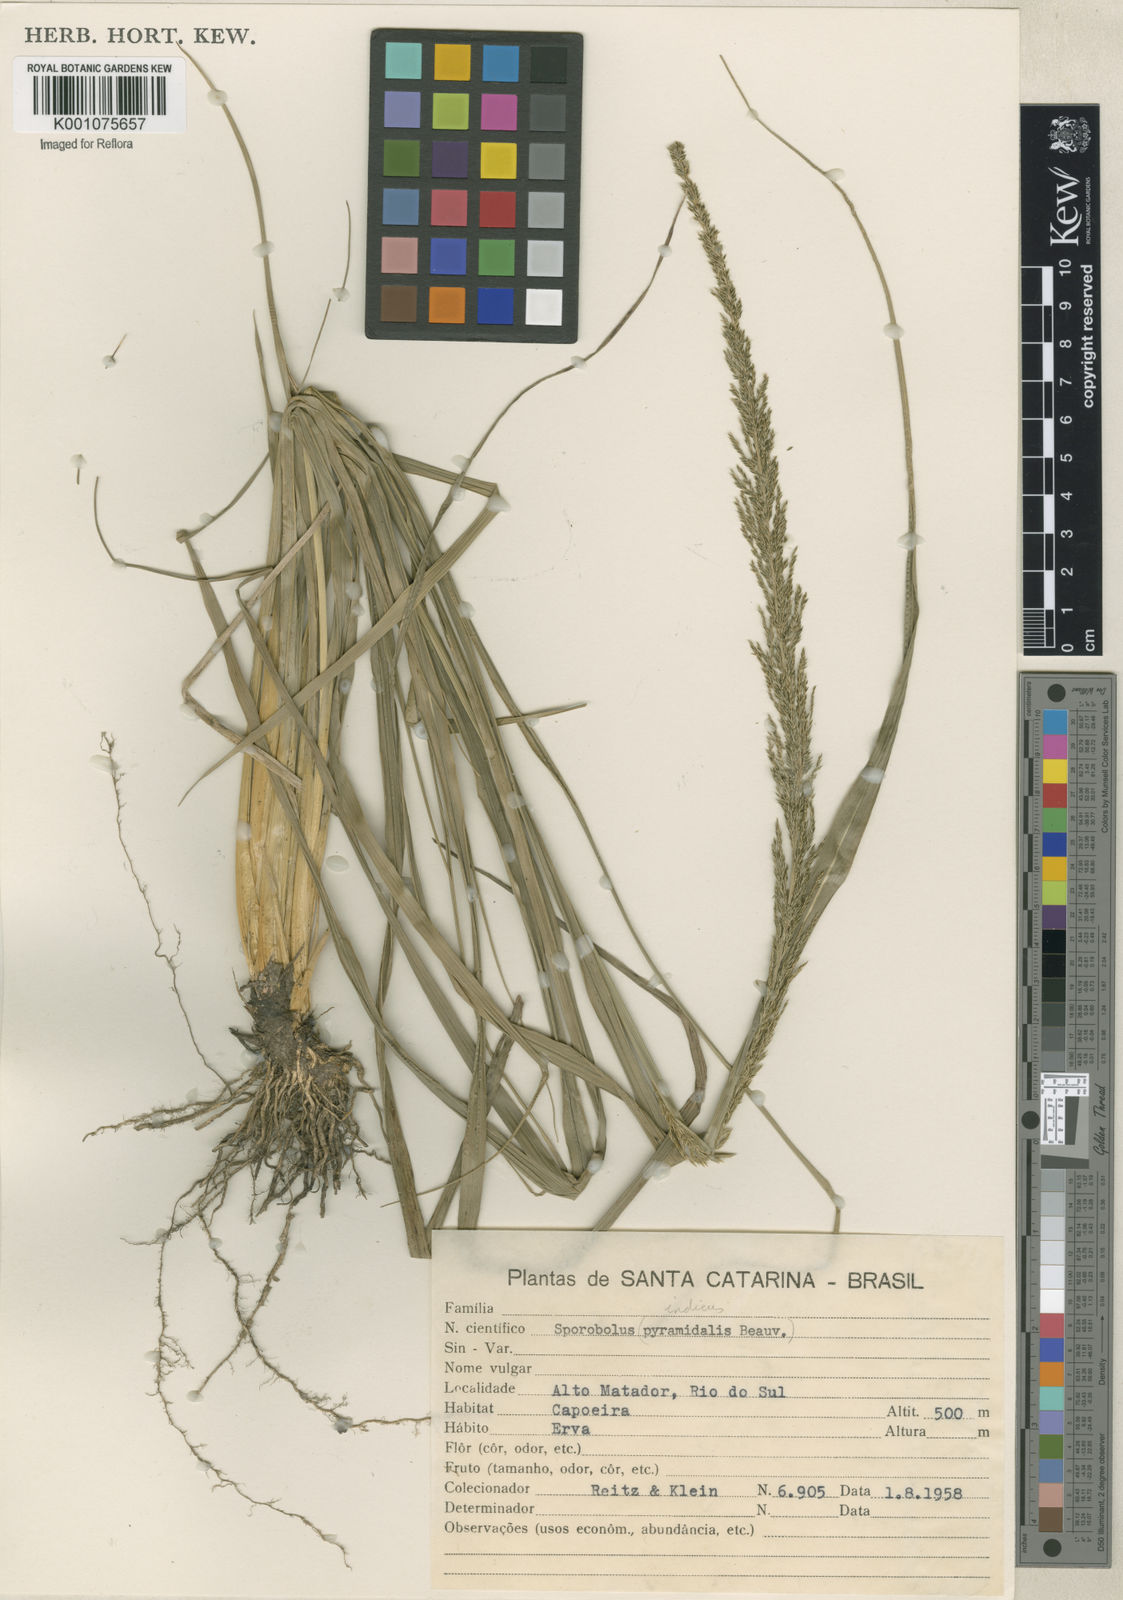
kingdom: Plantae
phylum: Tracheophyta
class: Liliopsida
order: Poales
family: Poaceae
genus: Sporobolus
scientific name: Sporobolus indicus
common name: Smut grass
